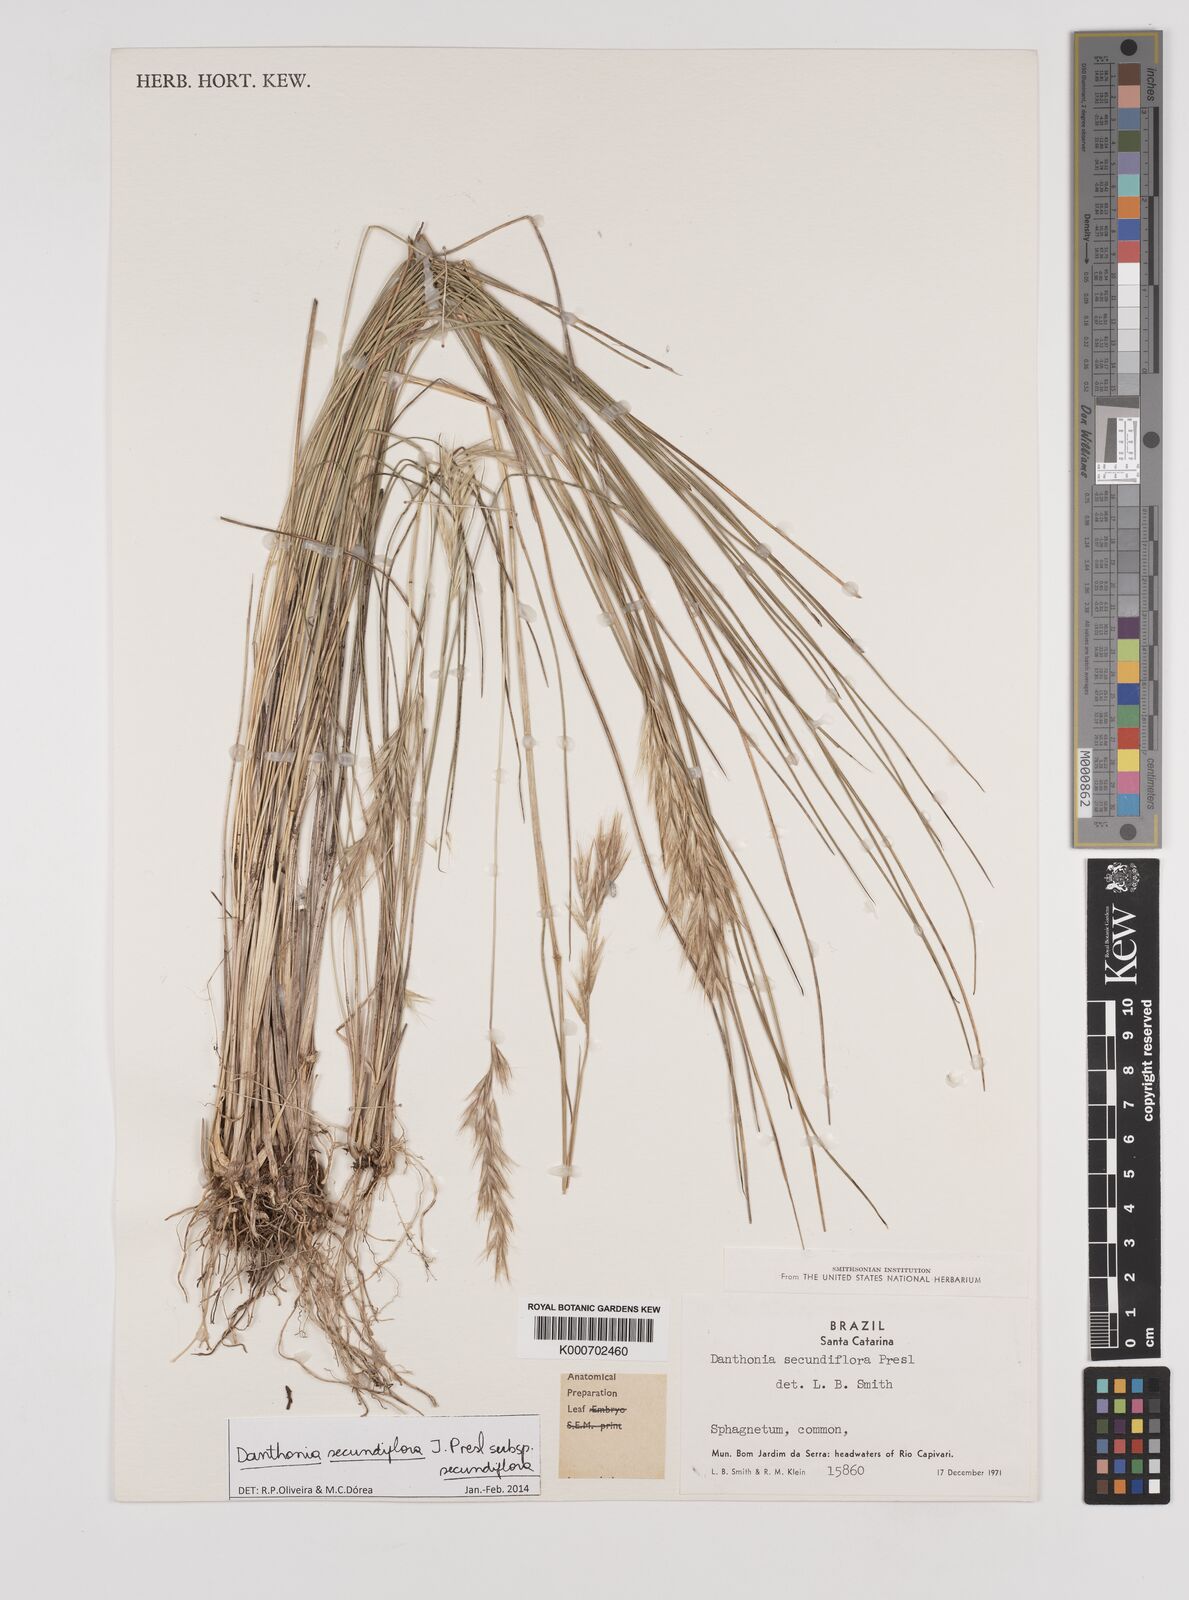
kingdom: Plantae
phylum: Tracheophyta
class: Liliopsida
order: Poales
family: Poaceae
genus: Danthonia
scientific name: Danthonia secundiflora
